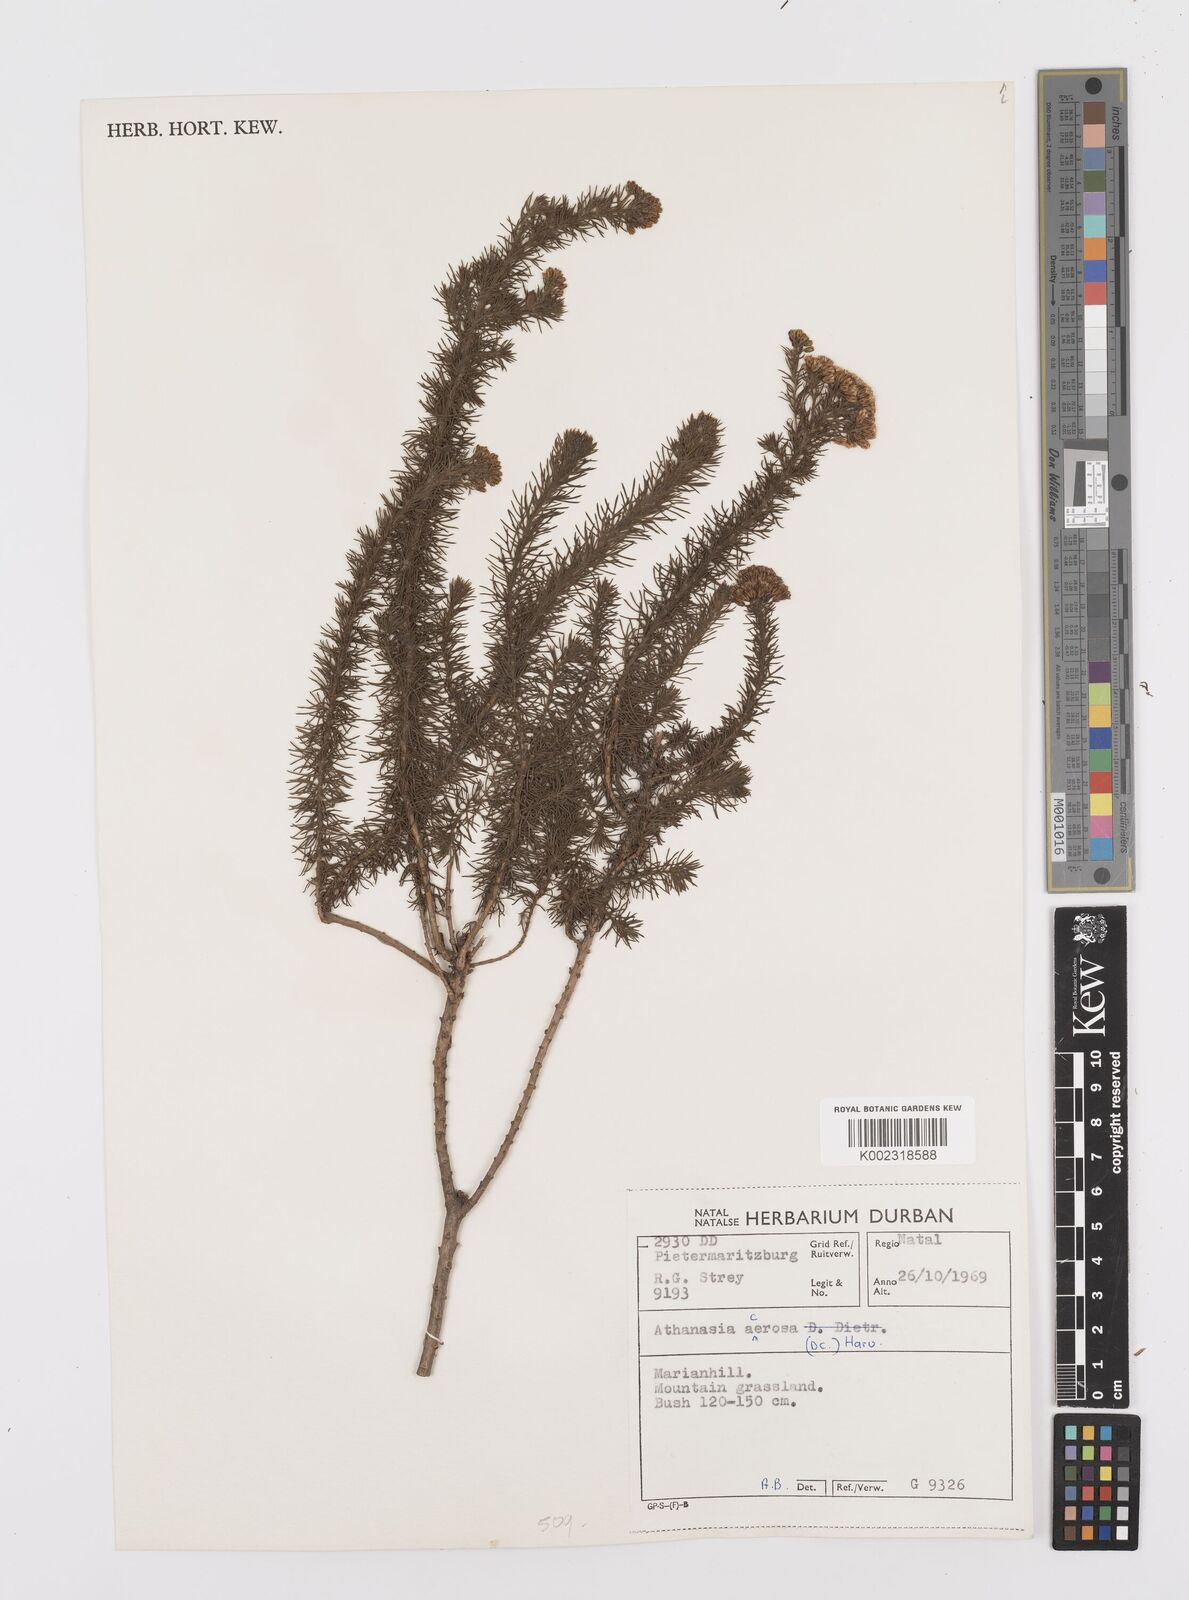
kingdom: Plantae
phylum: Tracheophyta
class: Magnoliopsida
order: Asterales
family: Asteraceae
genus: Phymaspermum
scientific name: Phymaspermum acerosum
